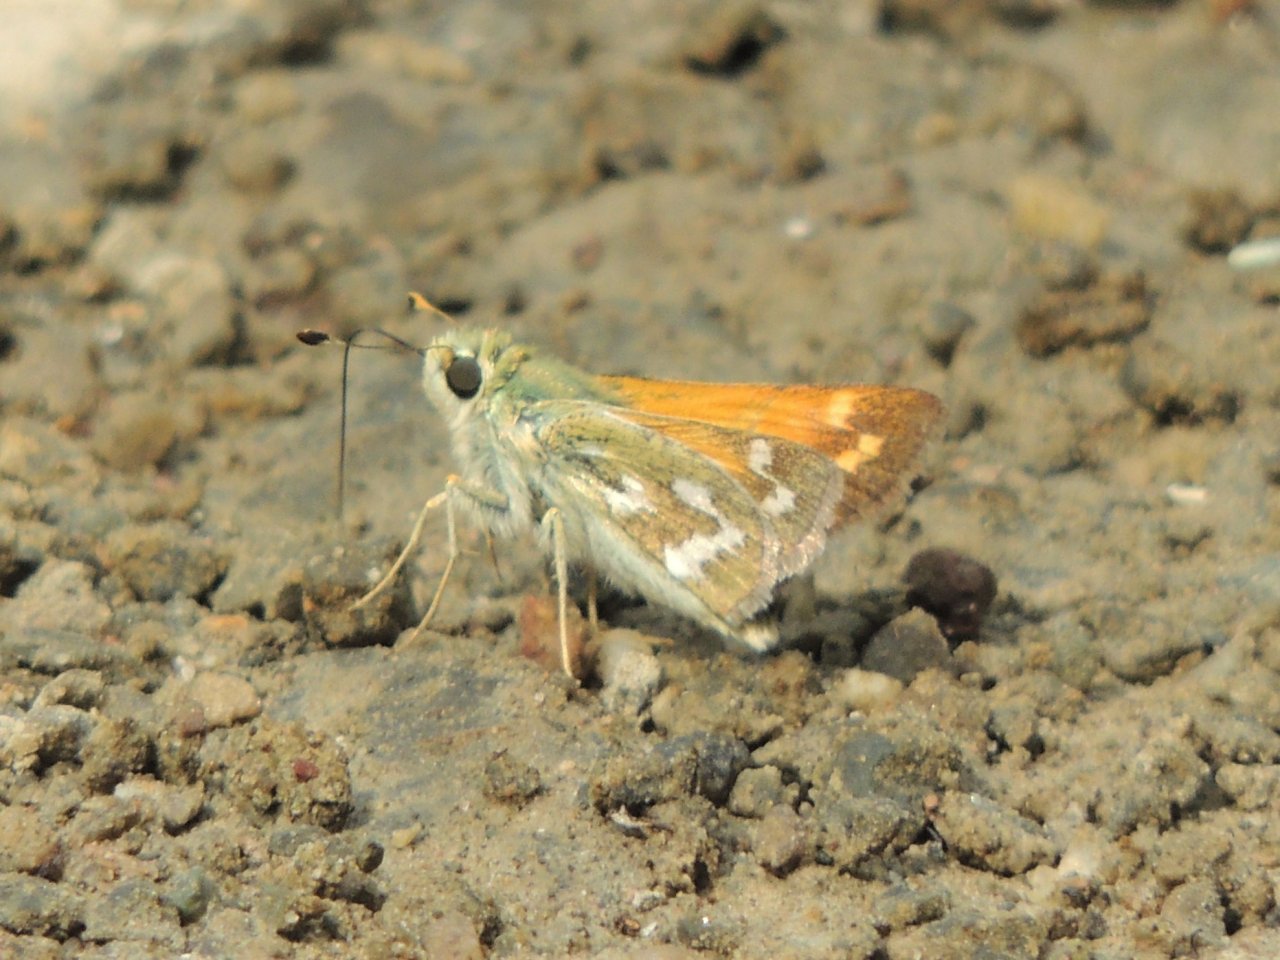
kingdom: Animalia
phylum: Arthropoda
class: Insecta
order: Lepidoptera
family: Hesperiidae
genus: Hesperia
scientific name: Hesperia comma
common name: Western Branded Skipper
